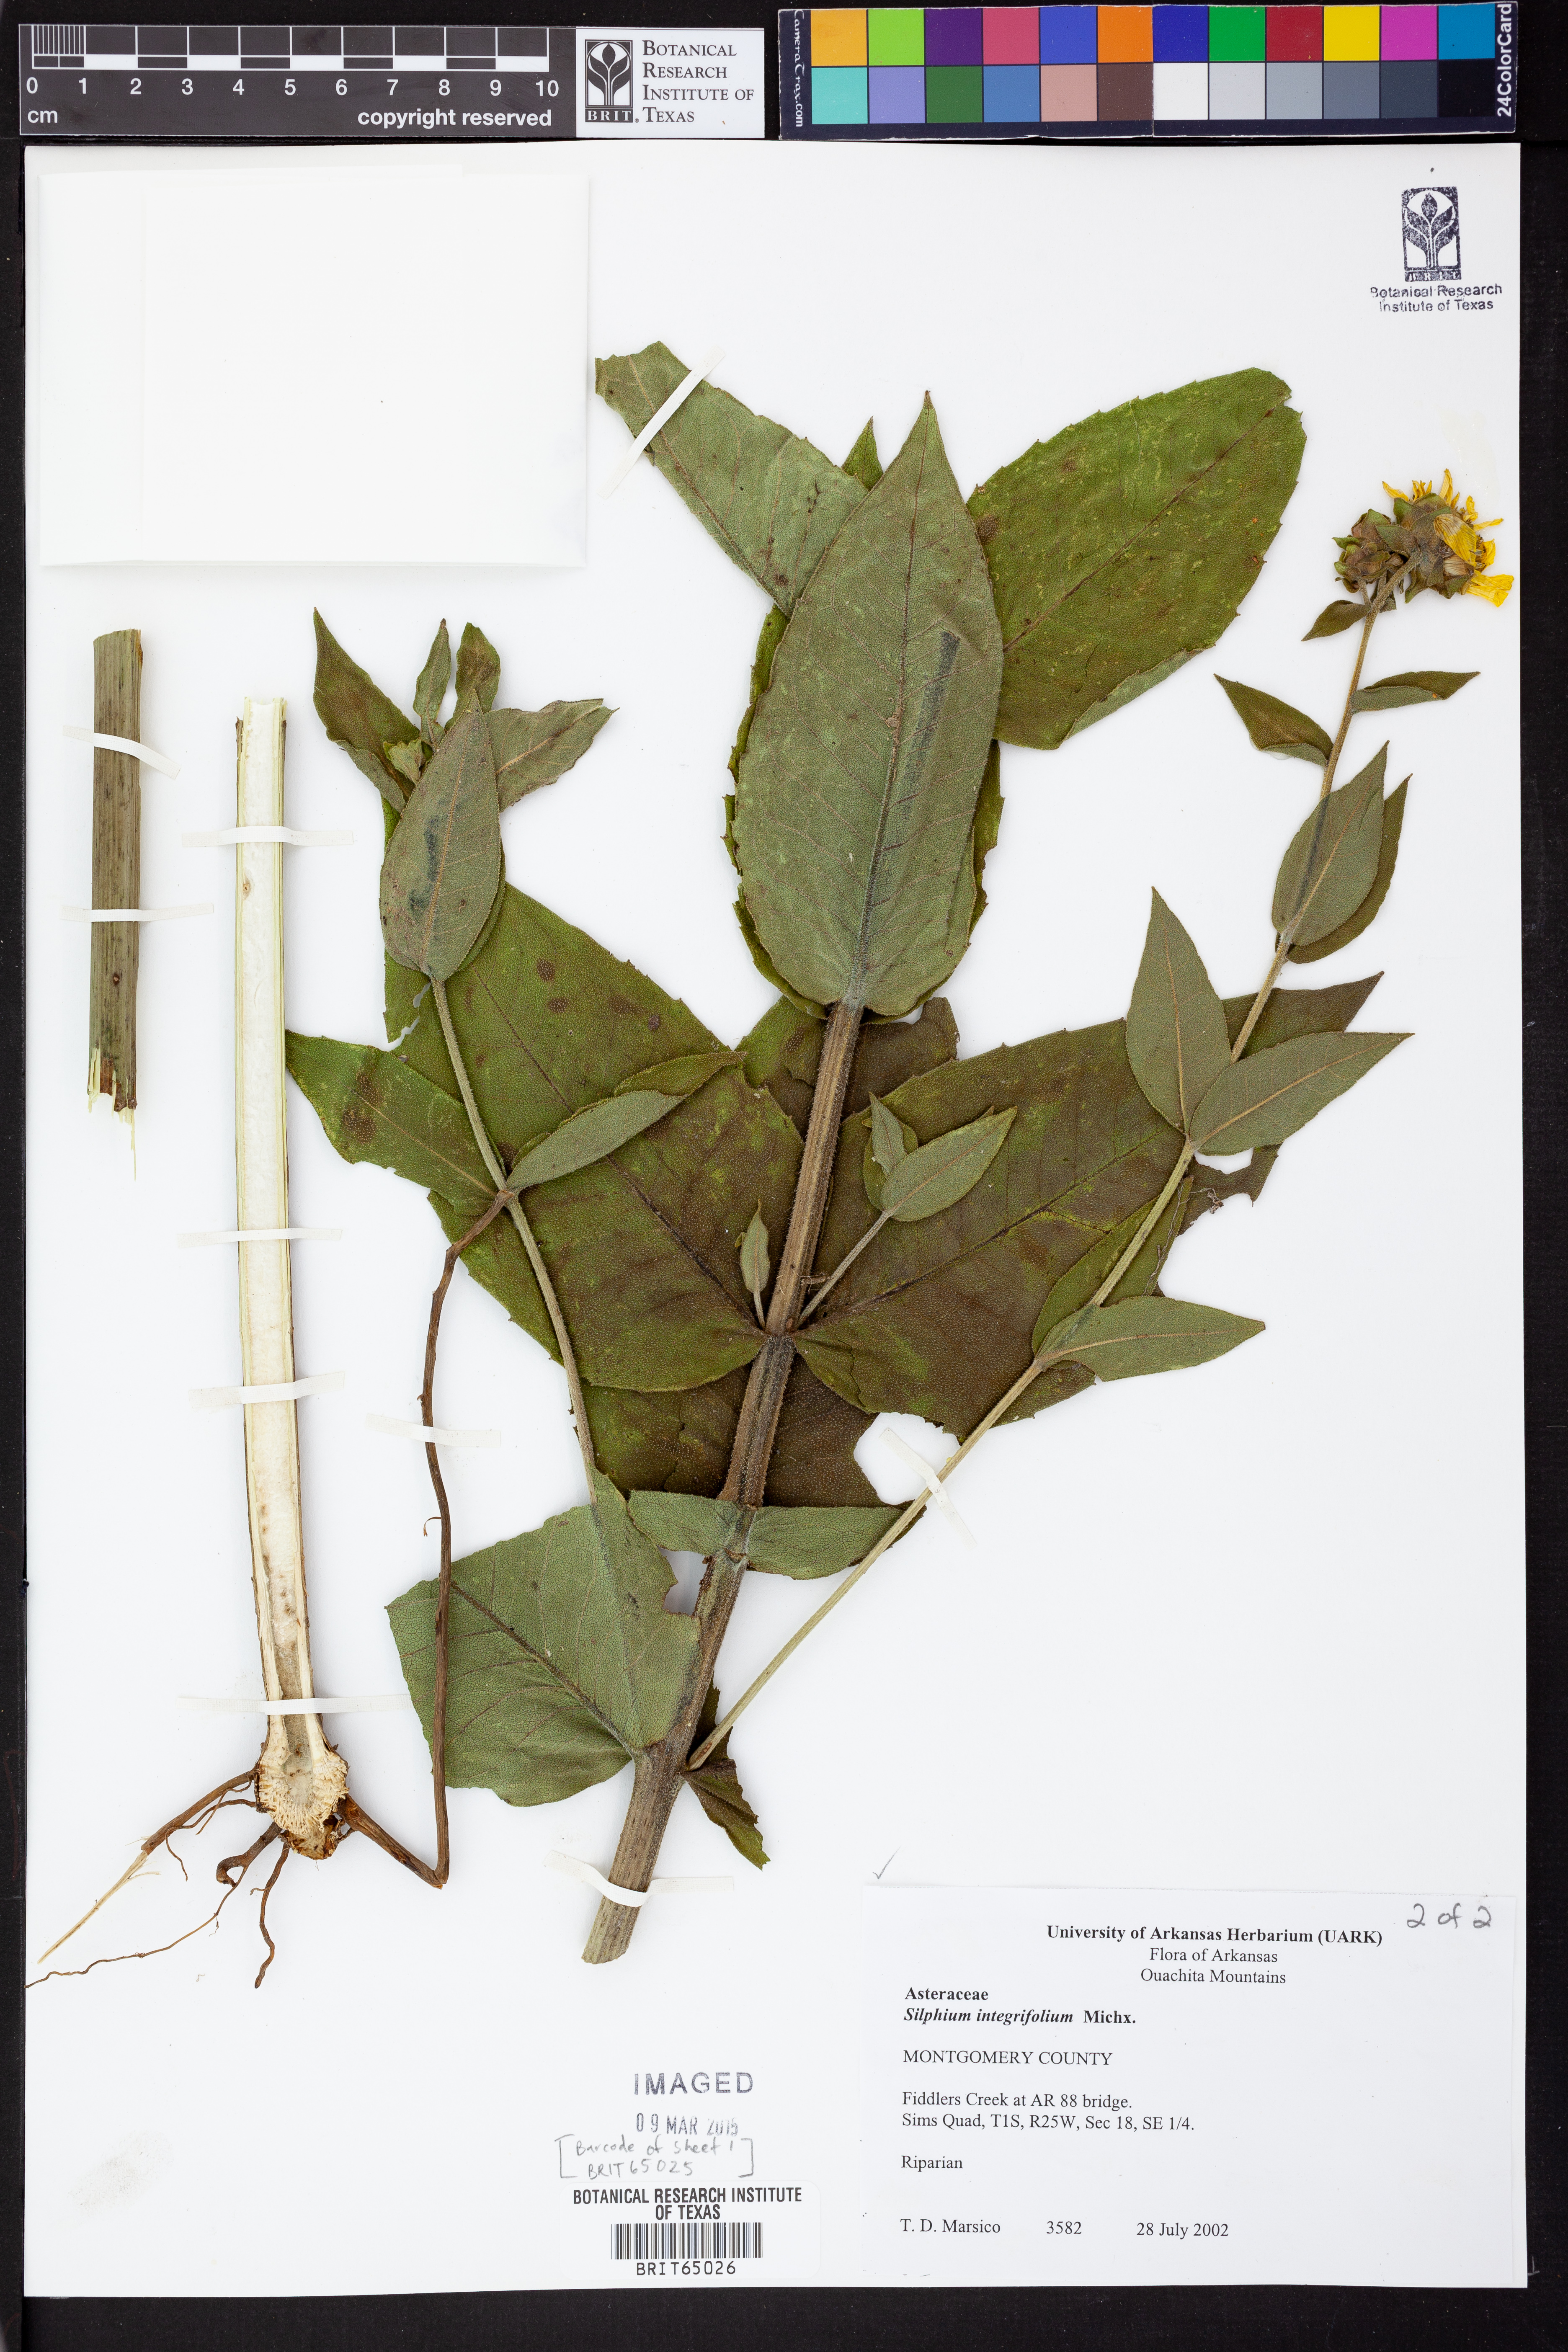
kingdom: Plantae
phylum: Tracheophyta
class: Magnoliopsida
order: Asterales
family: Asteraceae
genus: Silphium
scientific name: Silphium integrifolium
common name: Whole-leaf rosinweed
